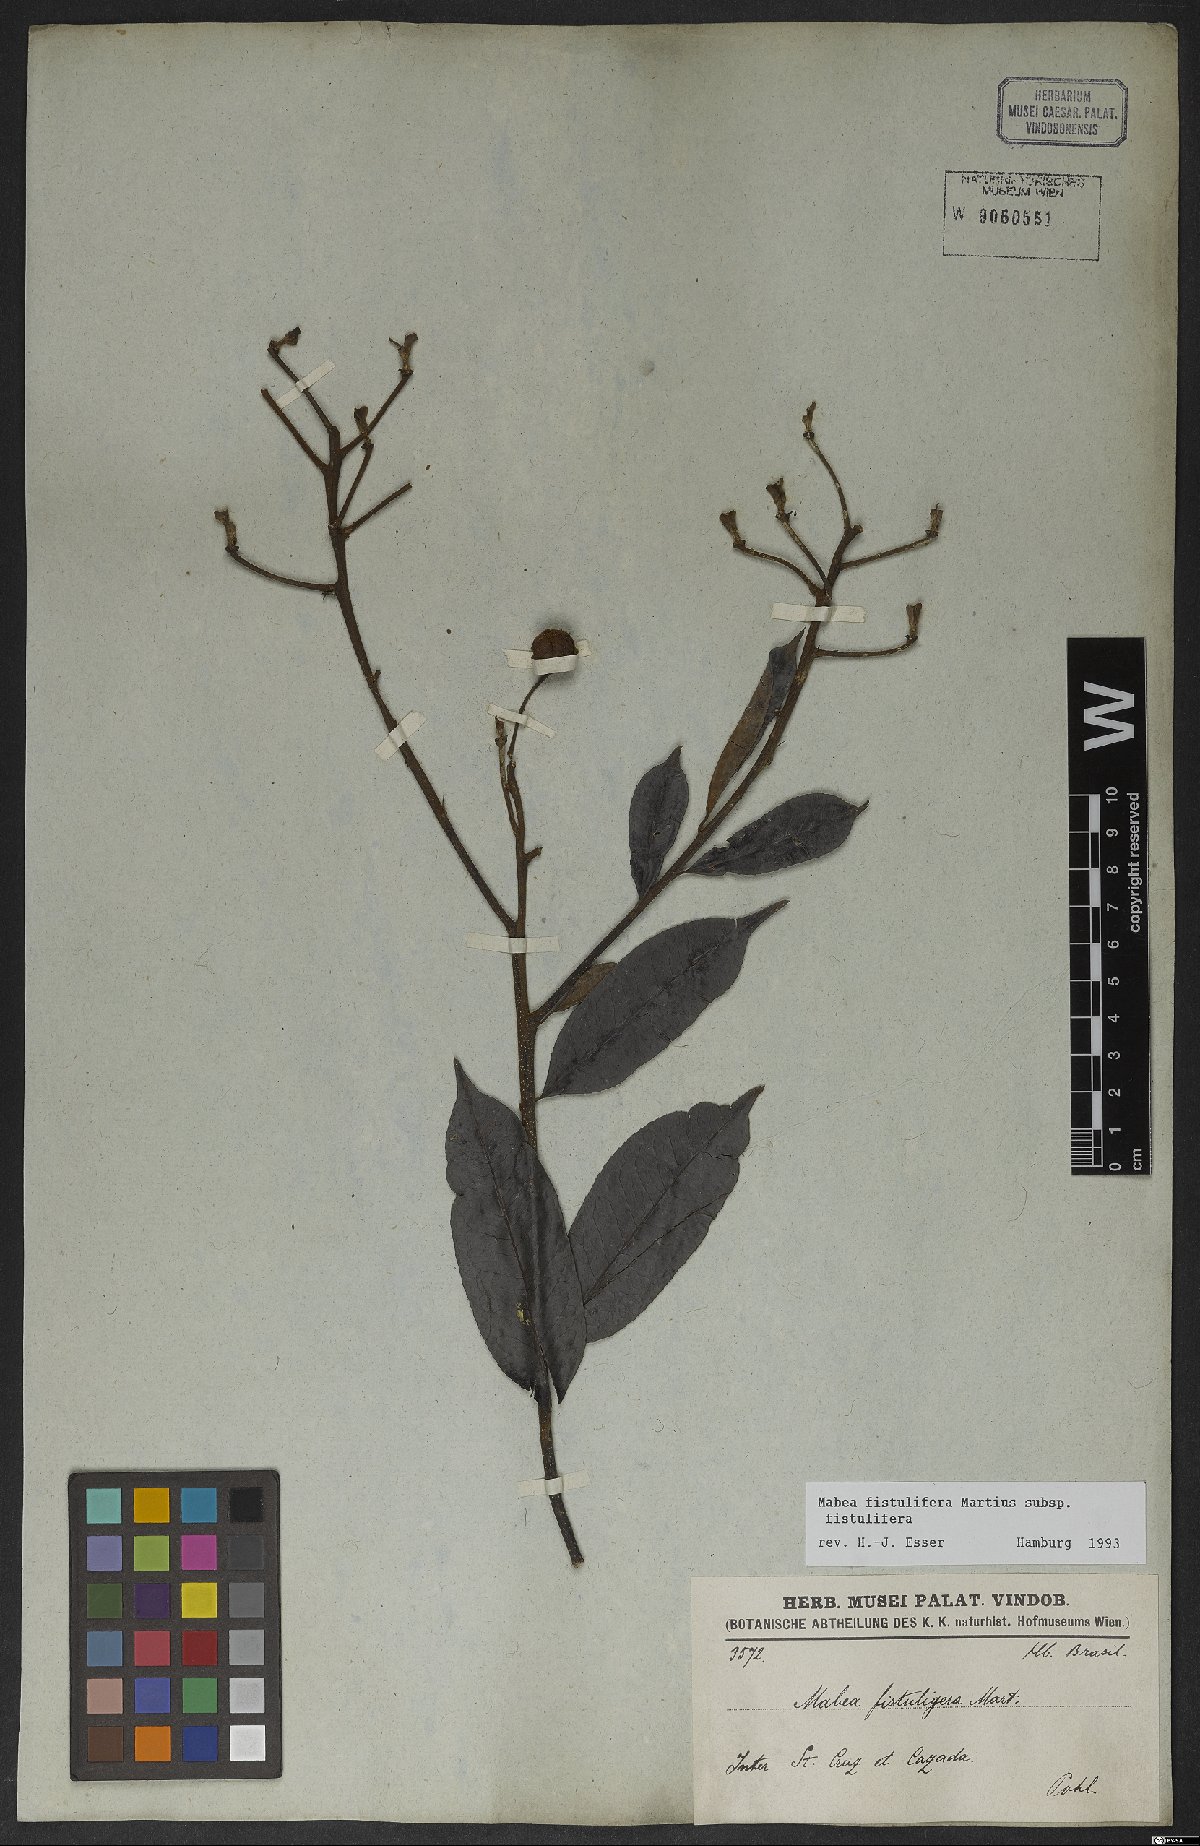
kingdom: Plantae
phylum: Tracheophyta
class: Magnoliopsida
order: Malpighiales
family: Euphorbiaceae
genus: Mabea
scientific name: Mabea fistulifera
